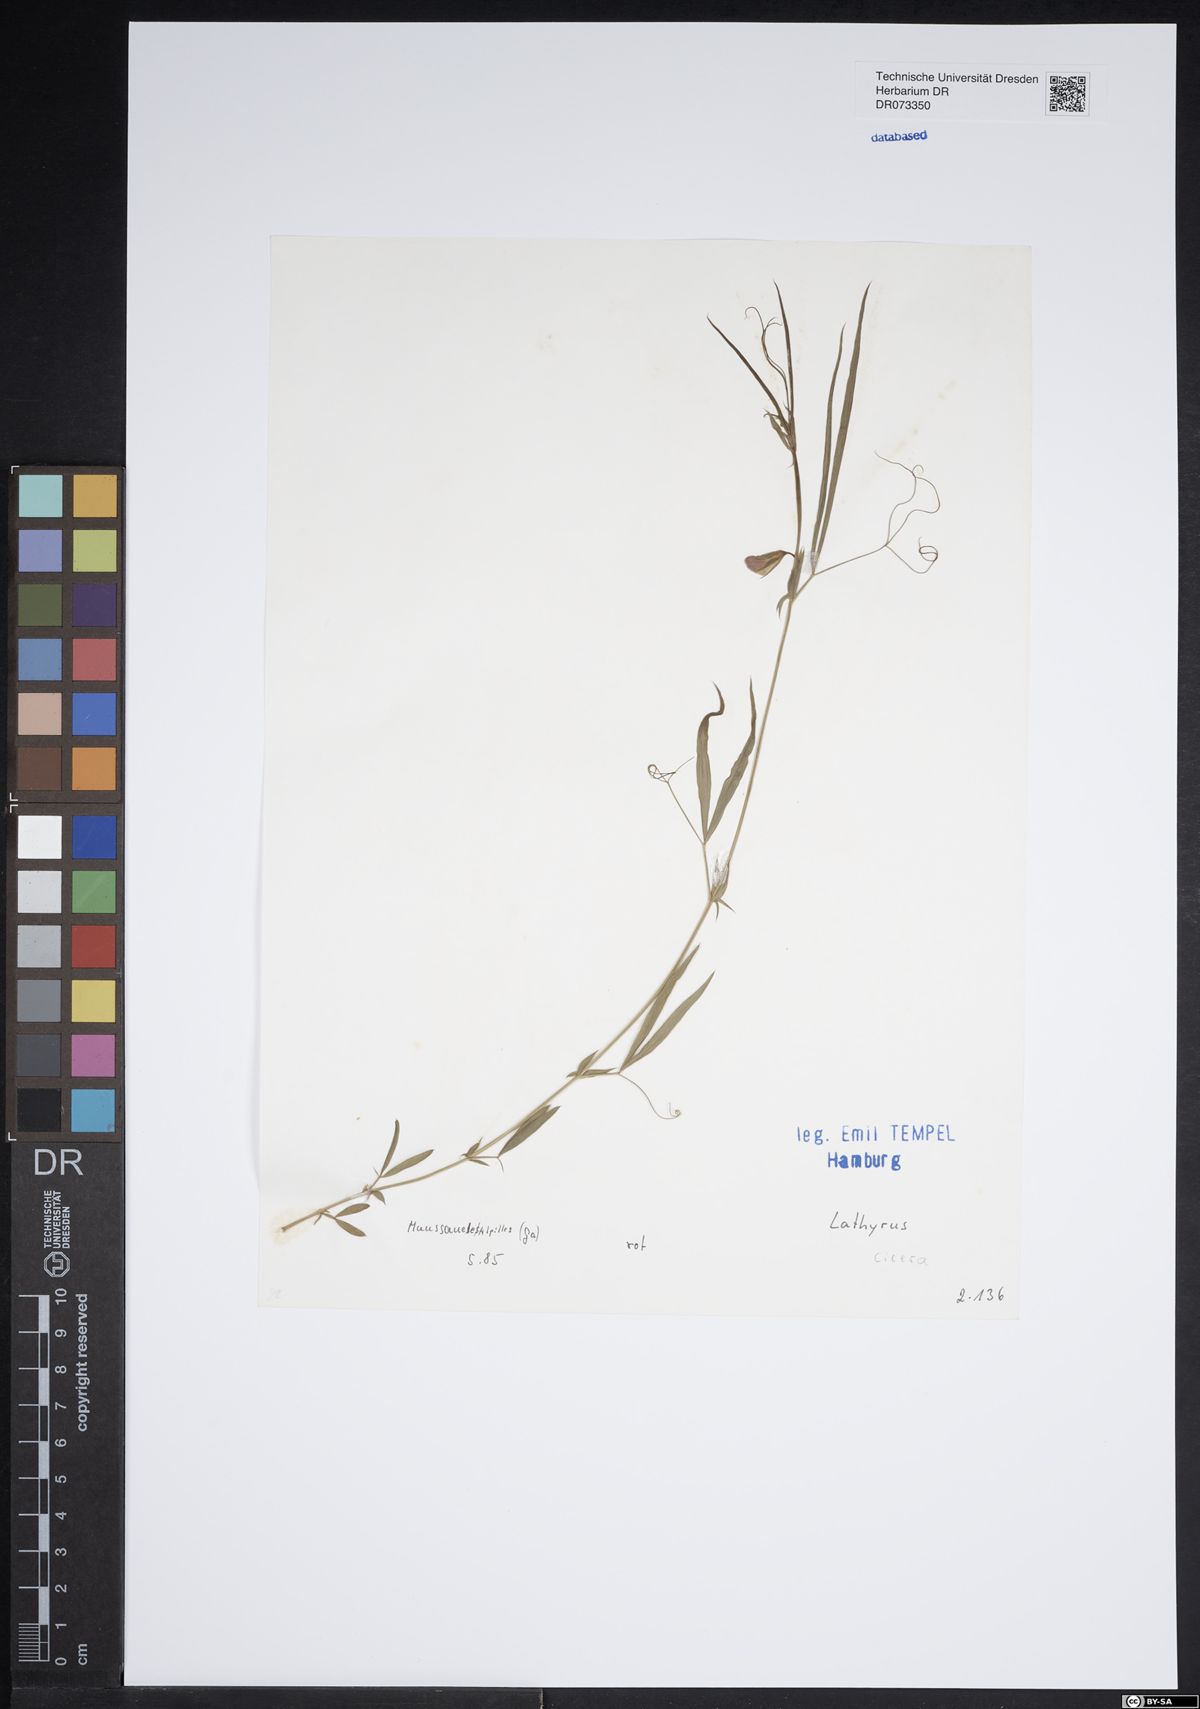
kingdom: Plantae
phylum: Tracheophyta
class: Magnoliopsida
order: Fabales
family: Fabaceae
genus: Lathyrus
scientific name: Lathyrus cicera
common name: Red vetchling
